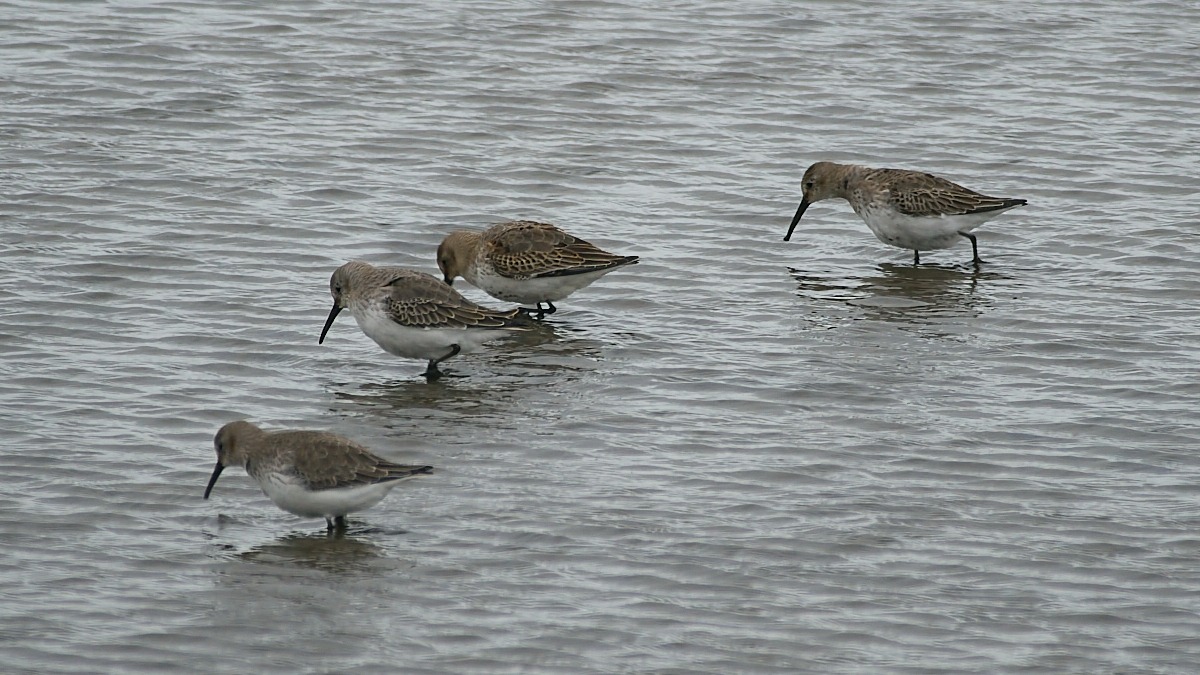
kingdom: Animalia
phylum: Chordata
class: Aves
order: Charadriiformes
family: Scolopacidae
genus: Calidris
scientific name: Calidris alpina
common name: Almindelig ryle
